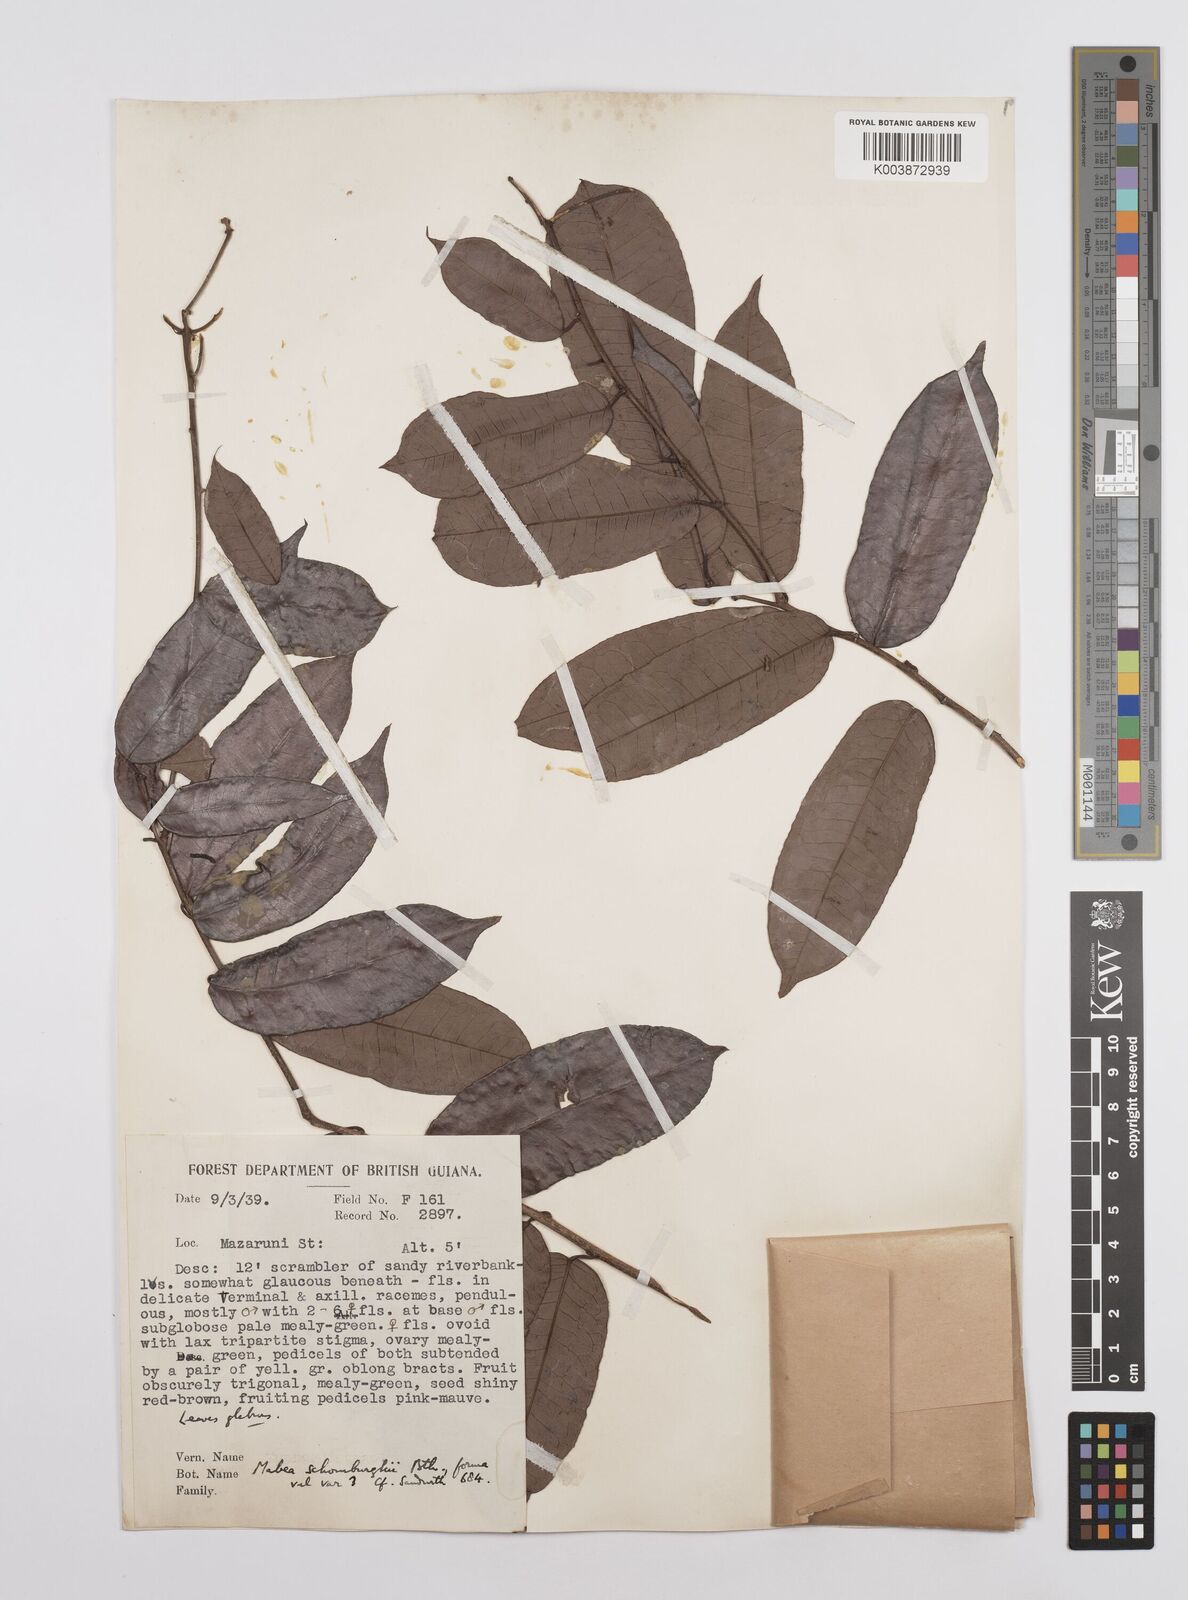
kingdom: Plantae
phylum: Tracheophyta
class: Magnoliopsida
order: Malpighiales
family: Euphorbiaceae
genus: Mabea
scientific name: Mabea taquari
